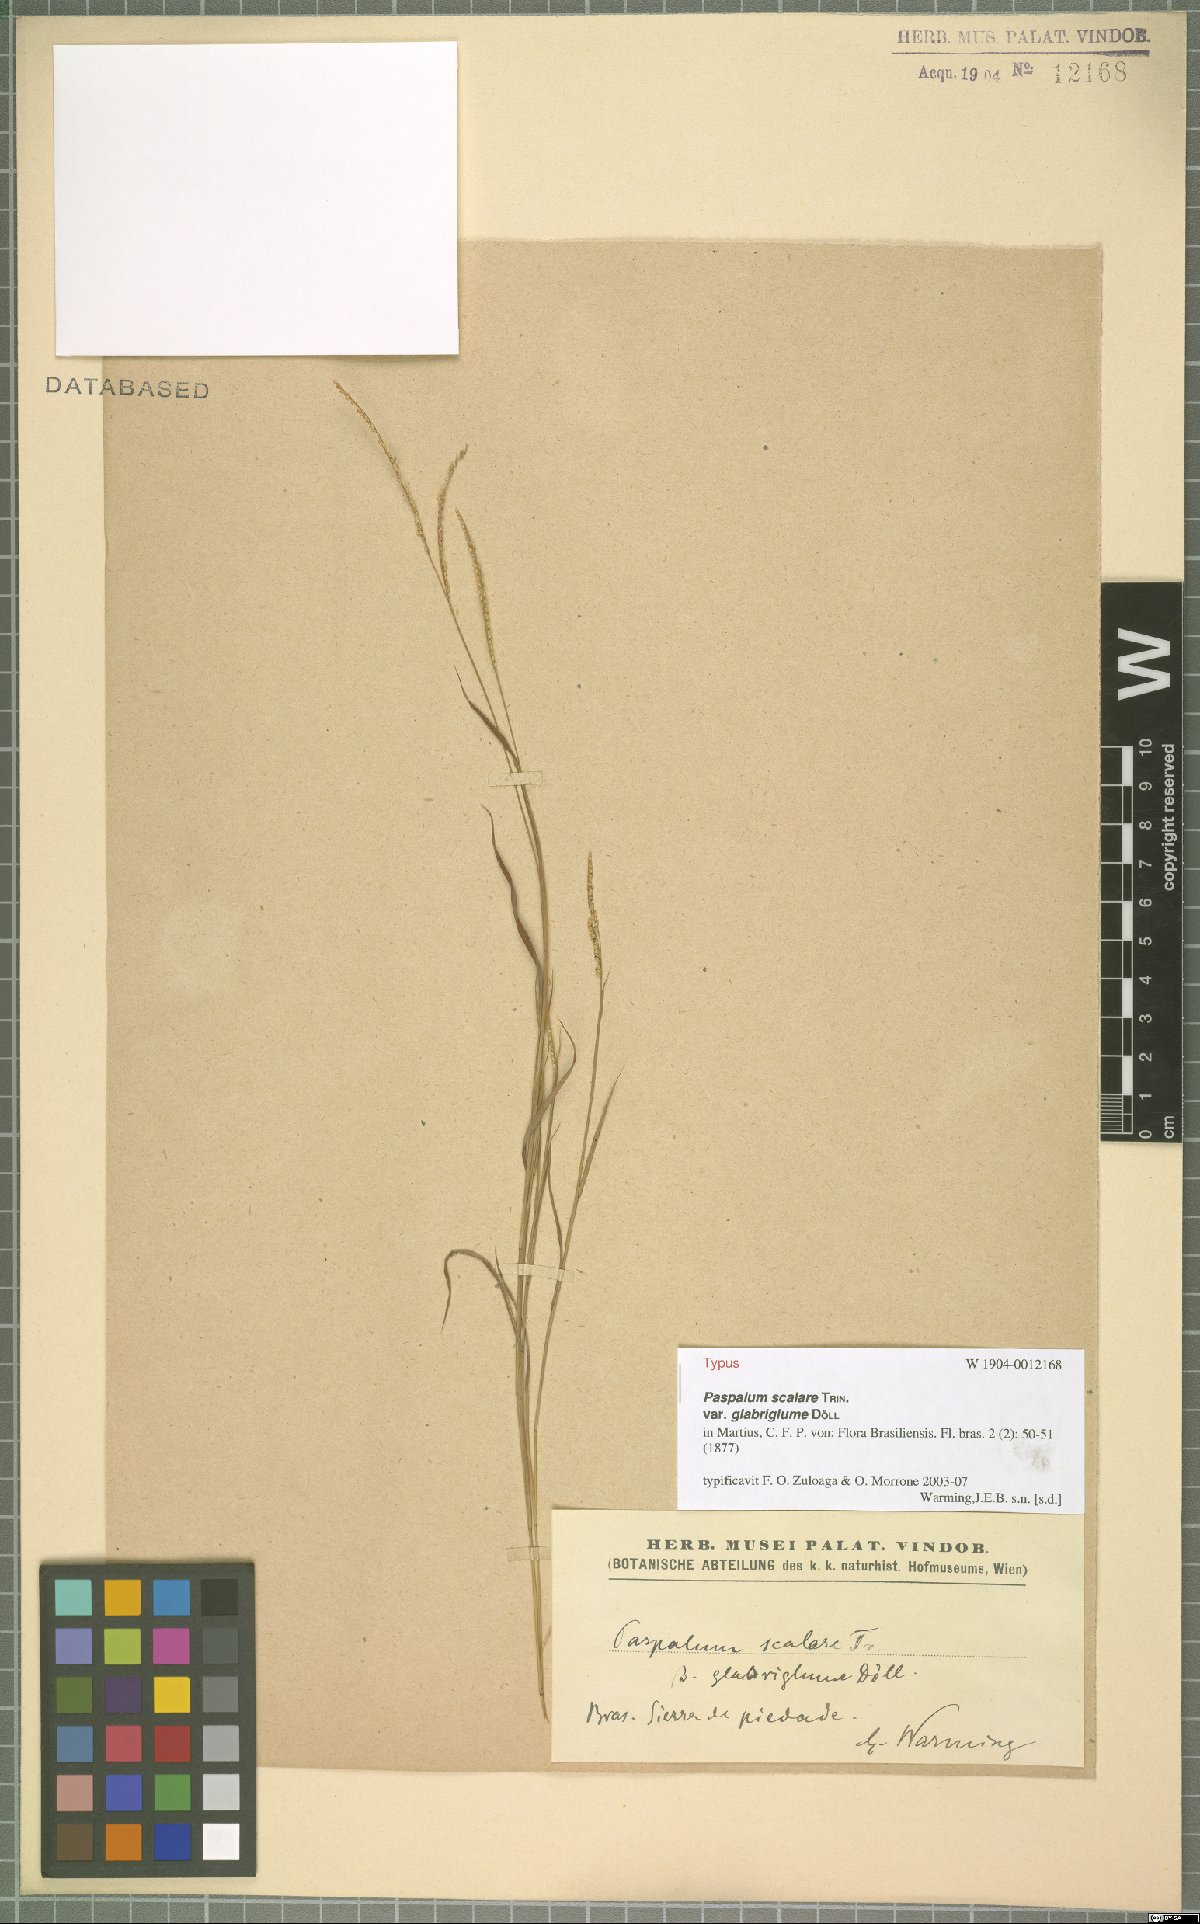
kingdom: Plantae
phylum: Tracheophyta
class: Liliopsida
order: Poales
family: Poaceae
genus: Paspalum
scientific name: Paspalum scalare
